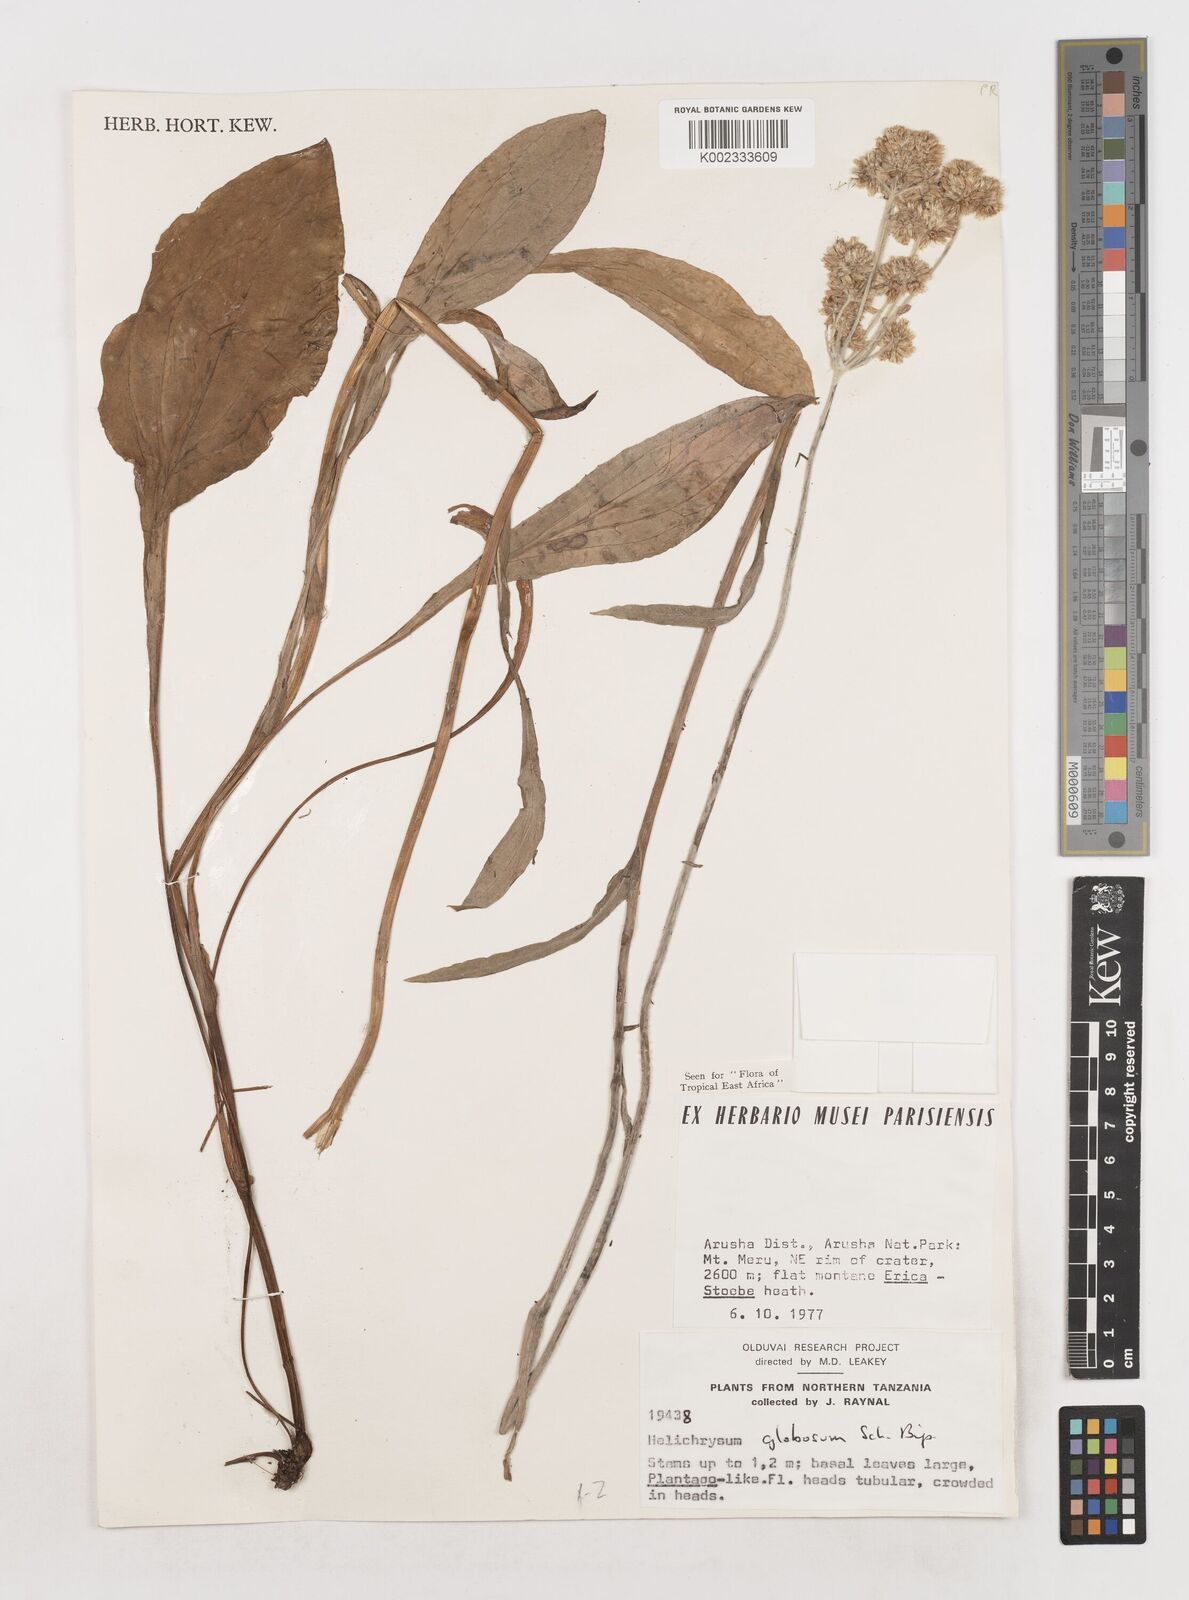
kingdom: Plantae
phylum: Tracheophyta
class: Magnoliopsida
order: Asterales
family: Asteraceae
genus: Helichrysum
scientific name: Helichrysum globosum
